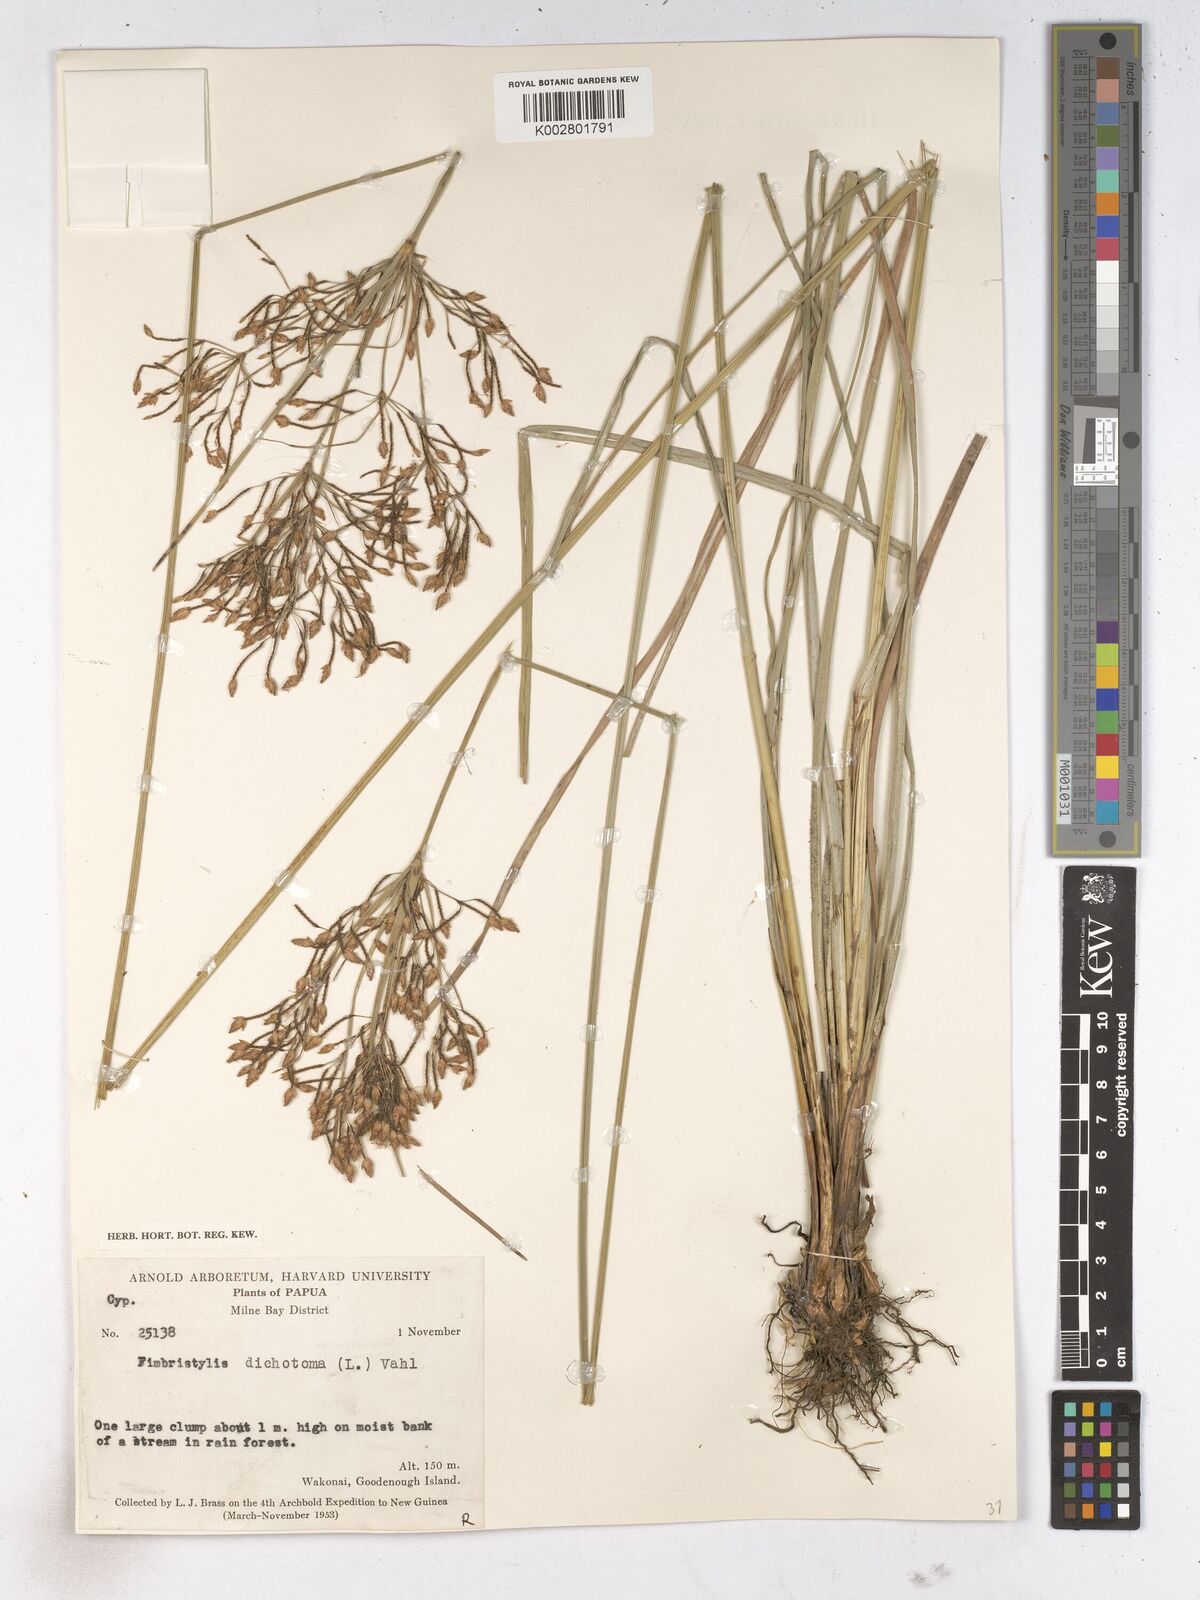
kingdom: Plantae
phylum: Tracheophyta
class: Liliopsida
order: Poales
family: Cyperaceae
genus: Fimbristylis
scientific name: Fimbristylis dichotoma
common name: Forked fimbry
